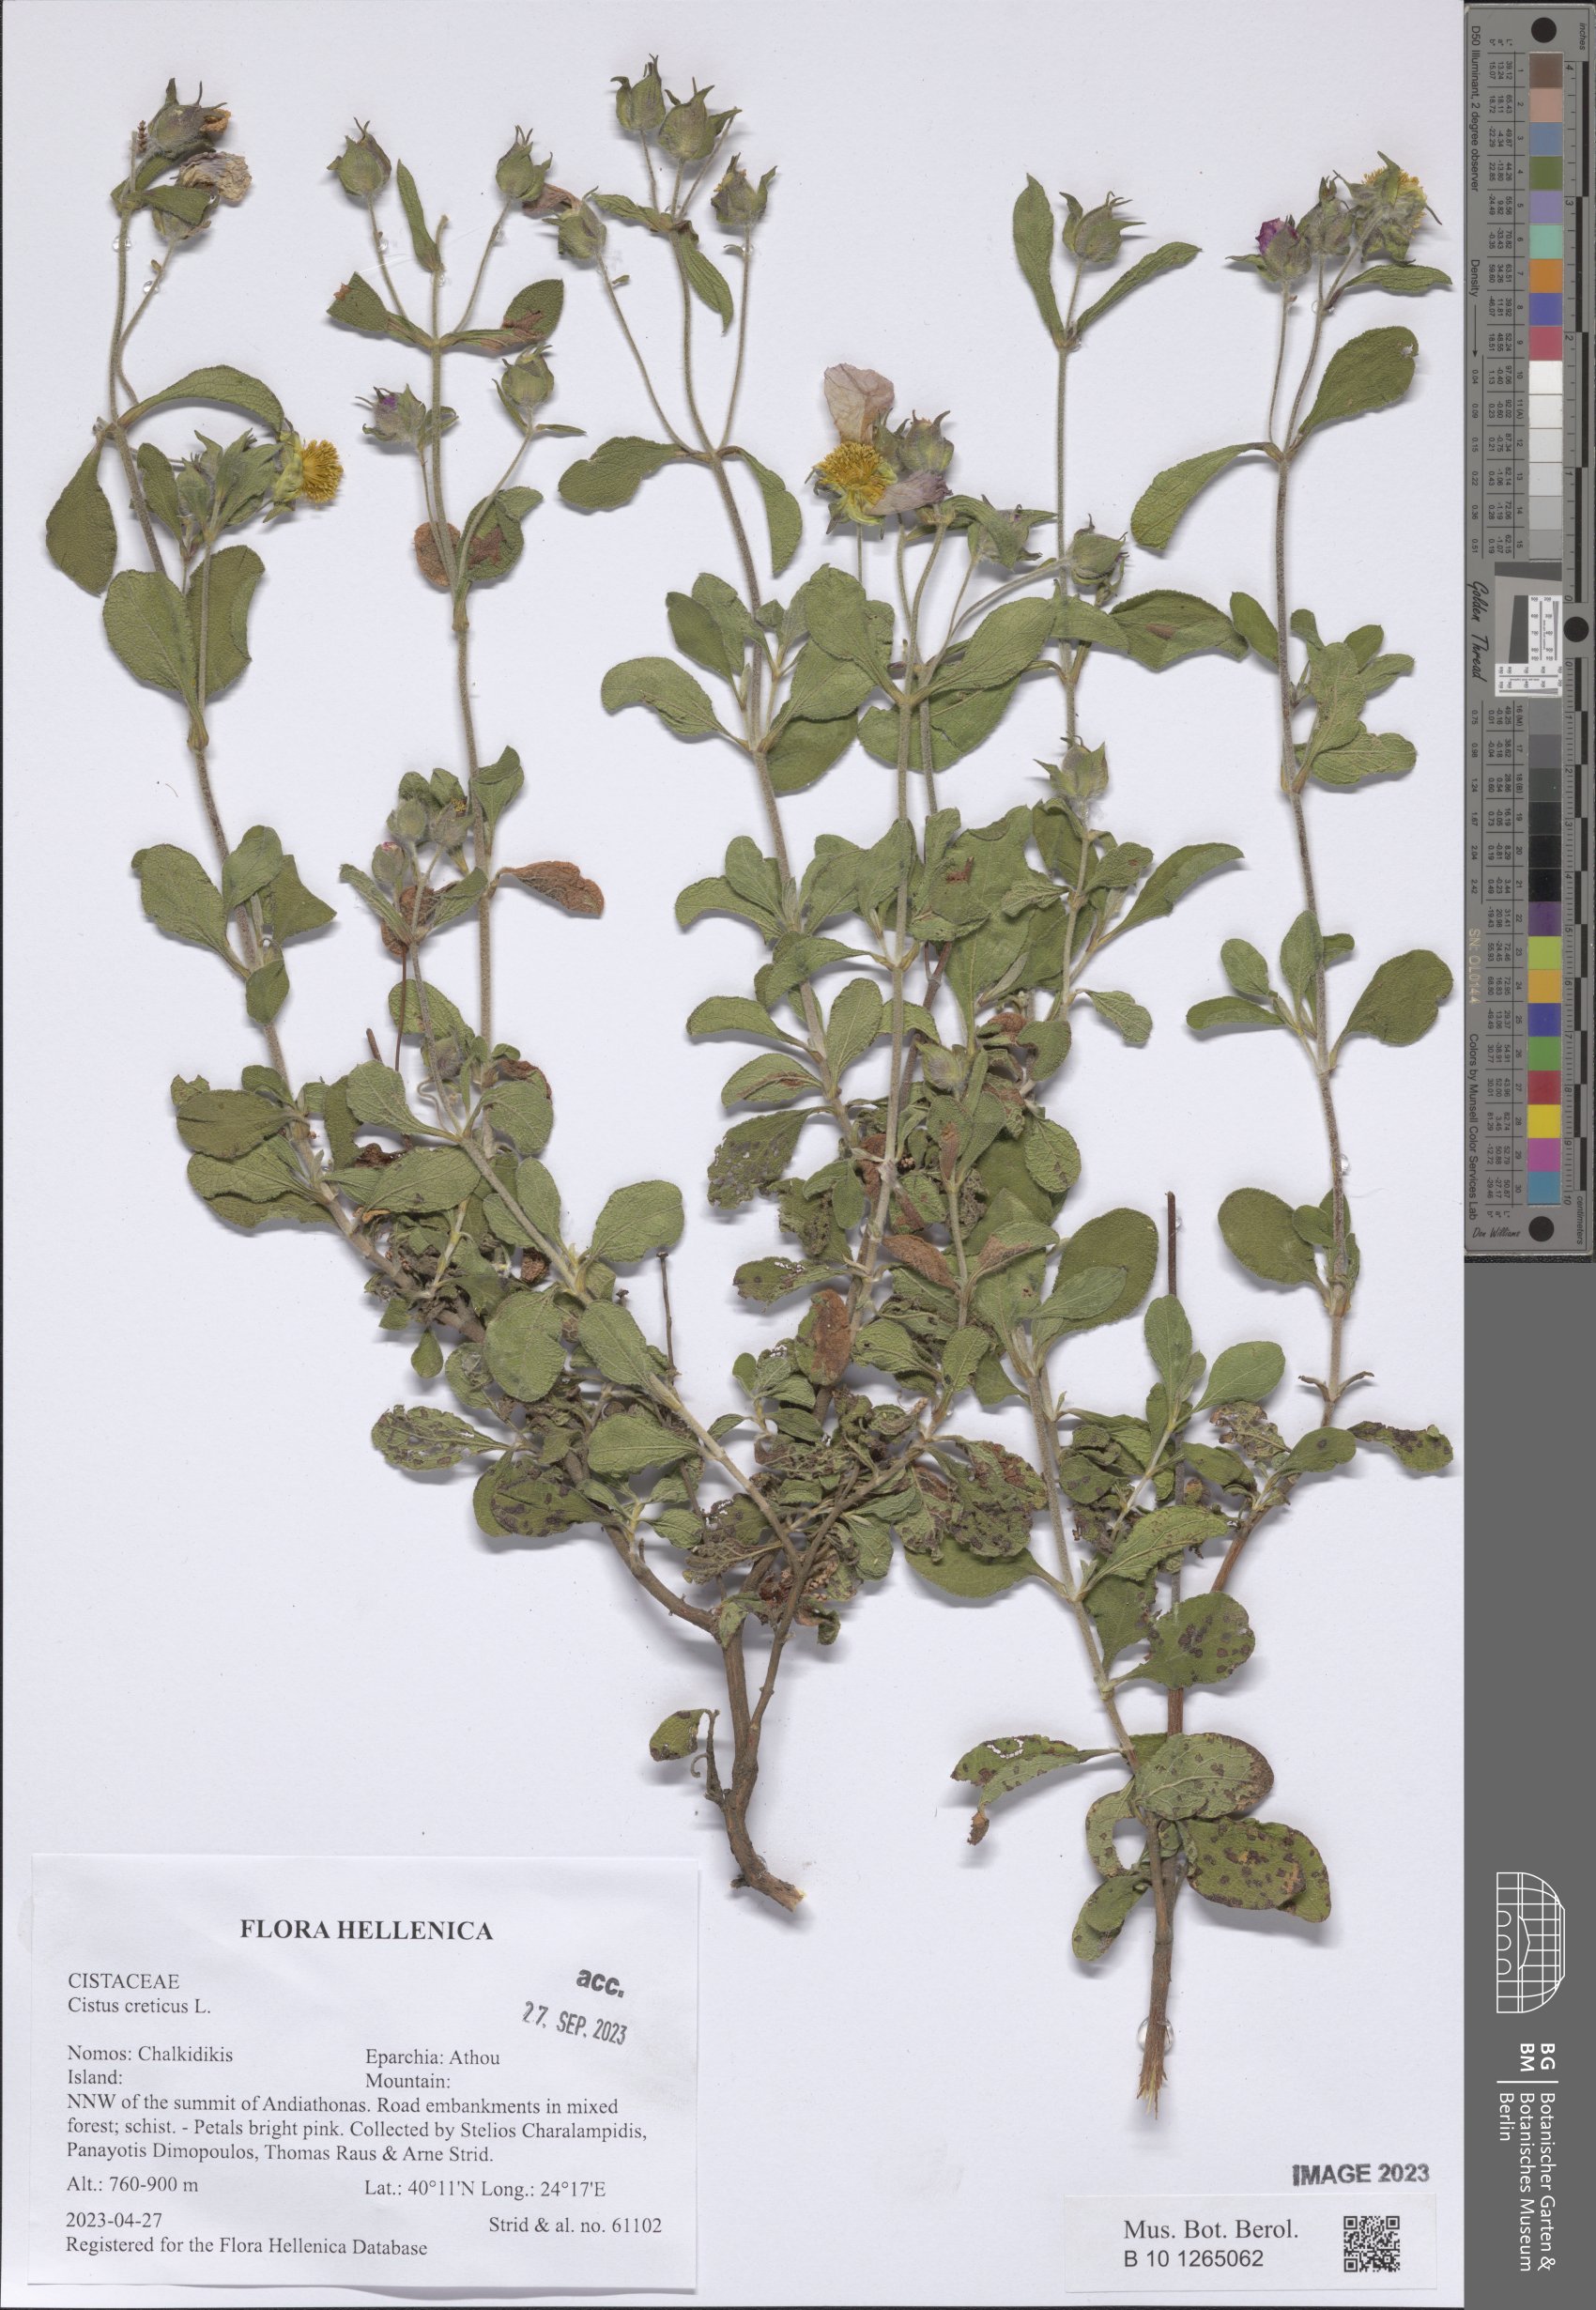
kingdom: Plantae
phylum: Tracheophyta
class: Magnoliopsida
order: Malvales
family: Cistaceae
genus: Cistus
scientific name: Cistus creticus
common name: Cretan rockrose
